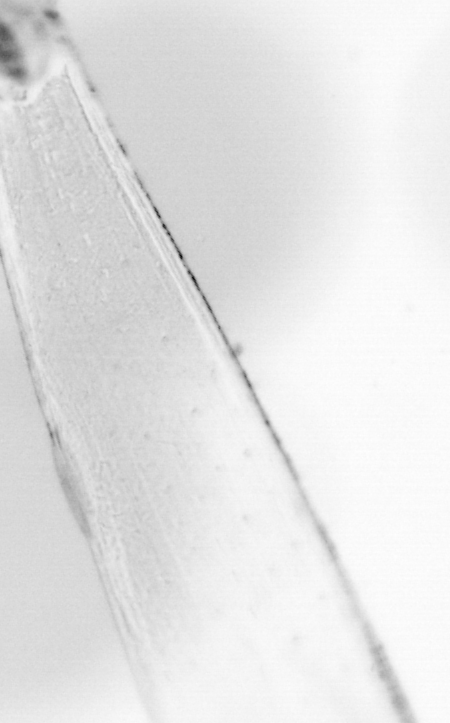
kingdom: Animalia
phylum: Chordata
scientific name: Chordata
